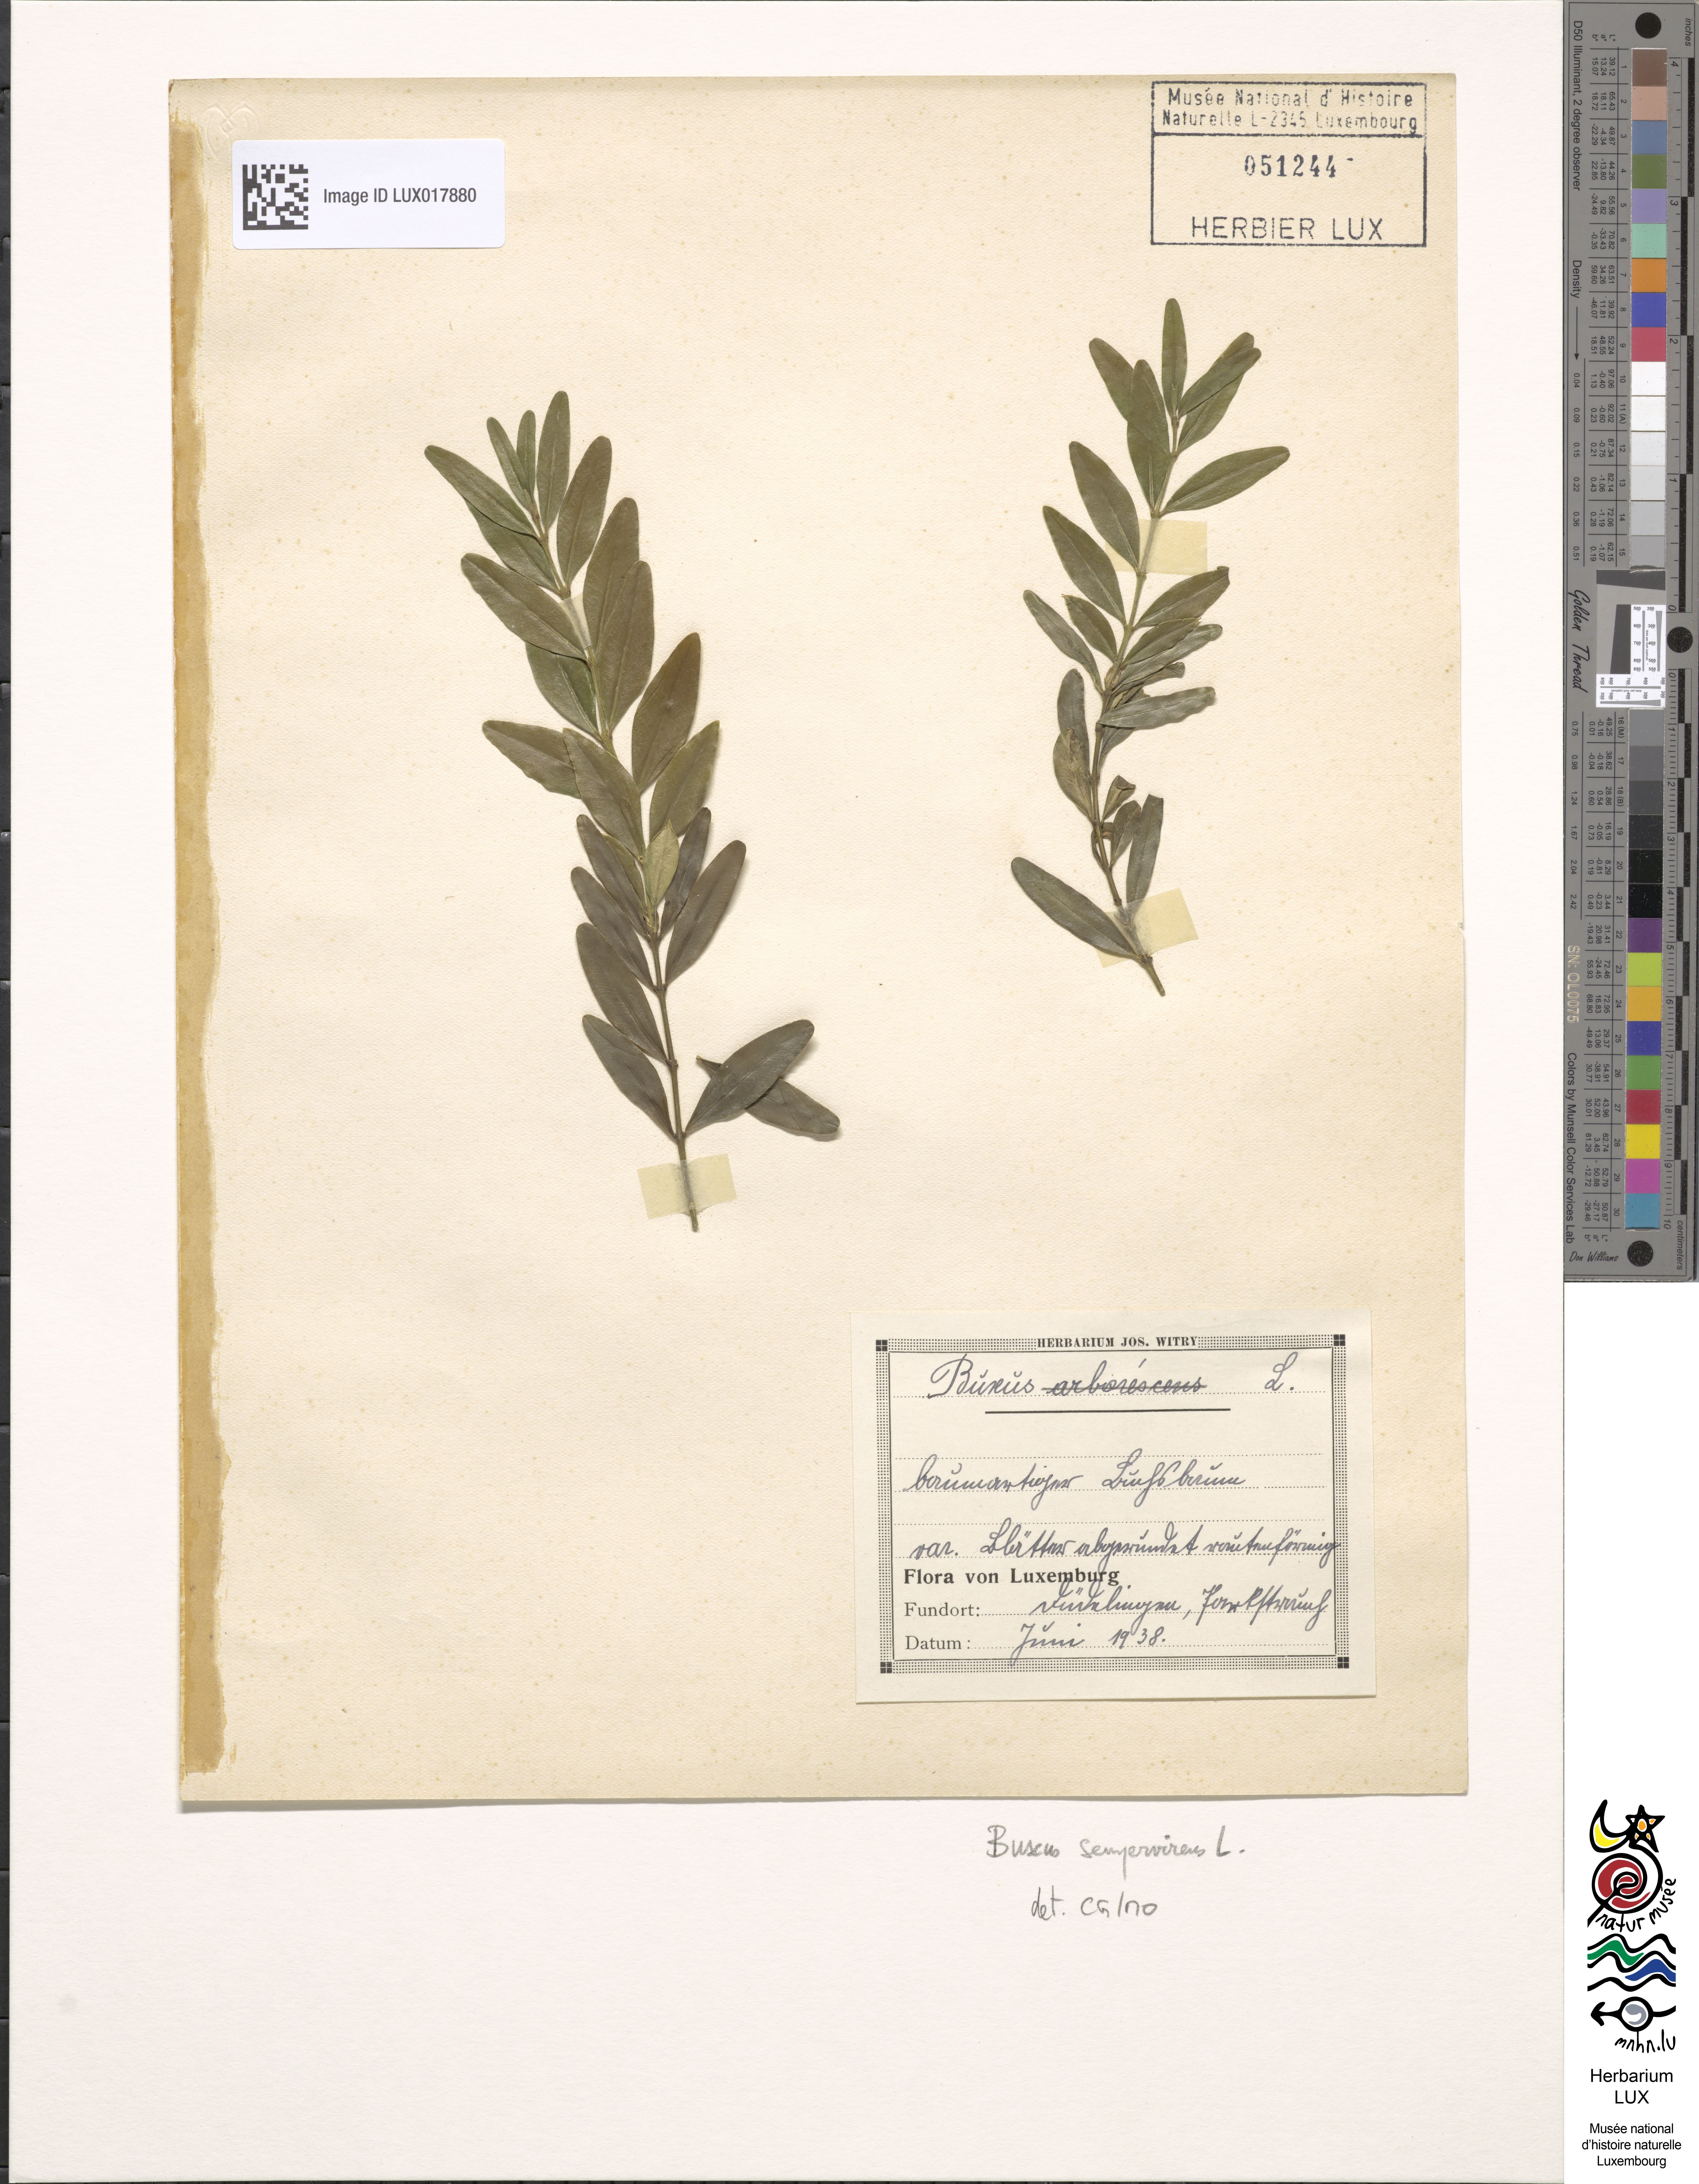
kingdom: Plantae
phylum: Tracheophyta
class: Magnoliopsida
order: Buxales
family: Buxaceae
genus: Buxus
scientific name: Buxus sempervirens
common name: Box
